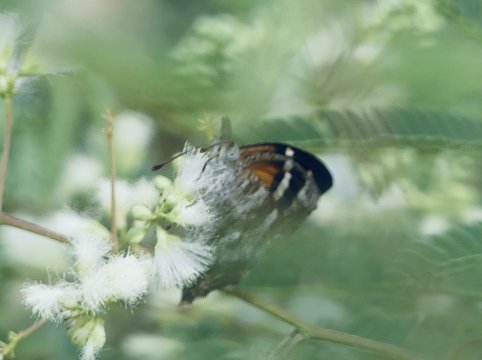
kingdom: Animalia
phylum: Arthropoda
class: Insecta
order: Lepidoptera
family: Nymphalidae
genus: Libytheana
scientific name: Libytheana carinenta
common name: American Snout
